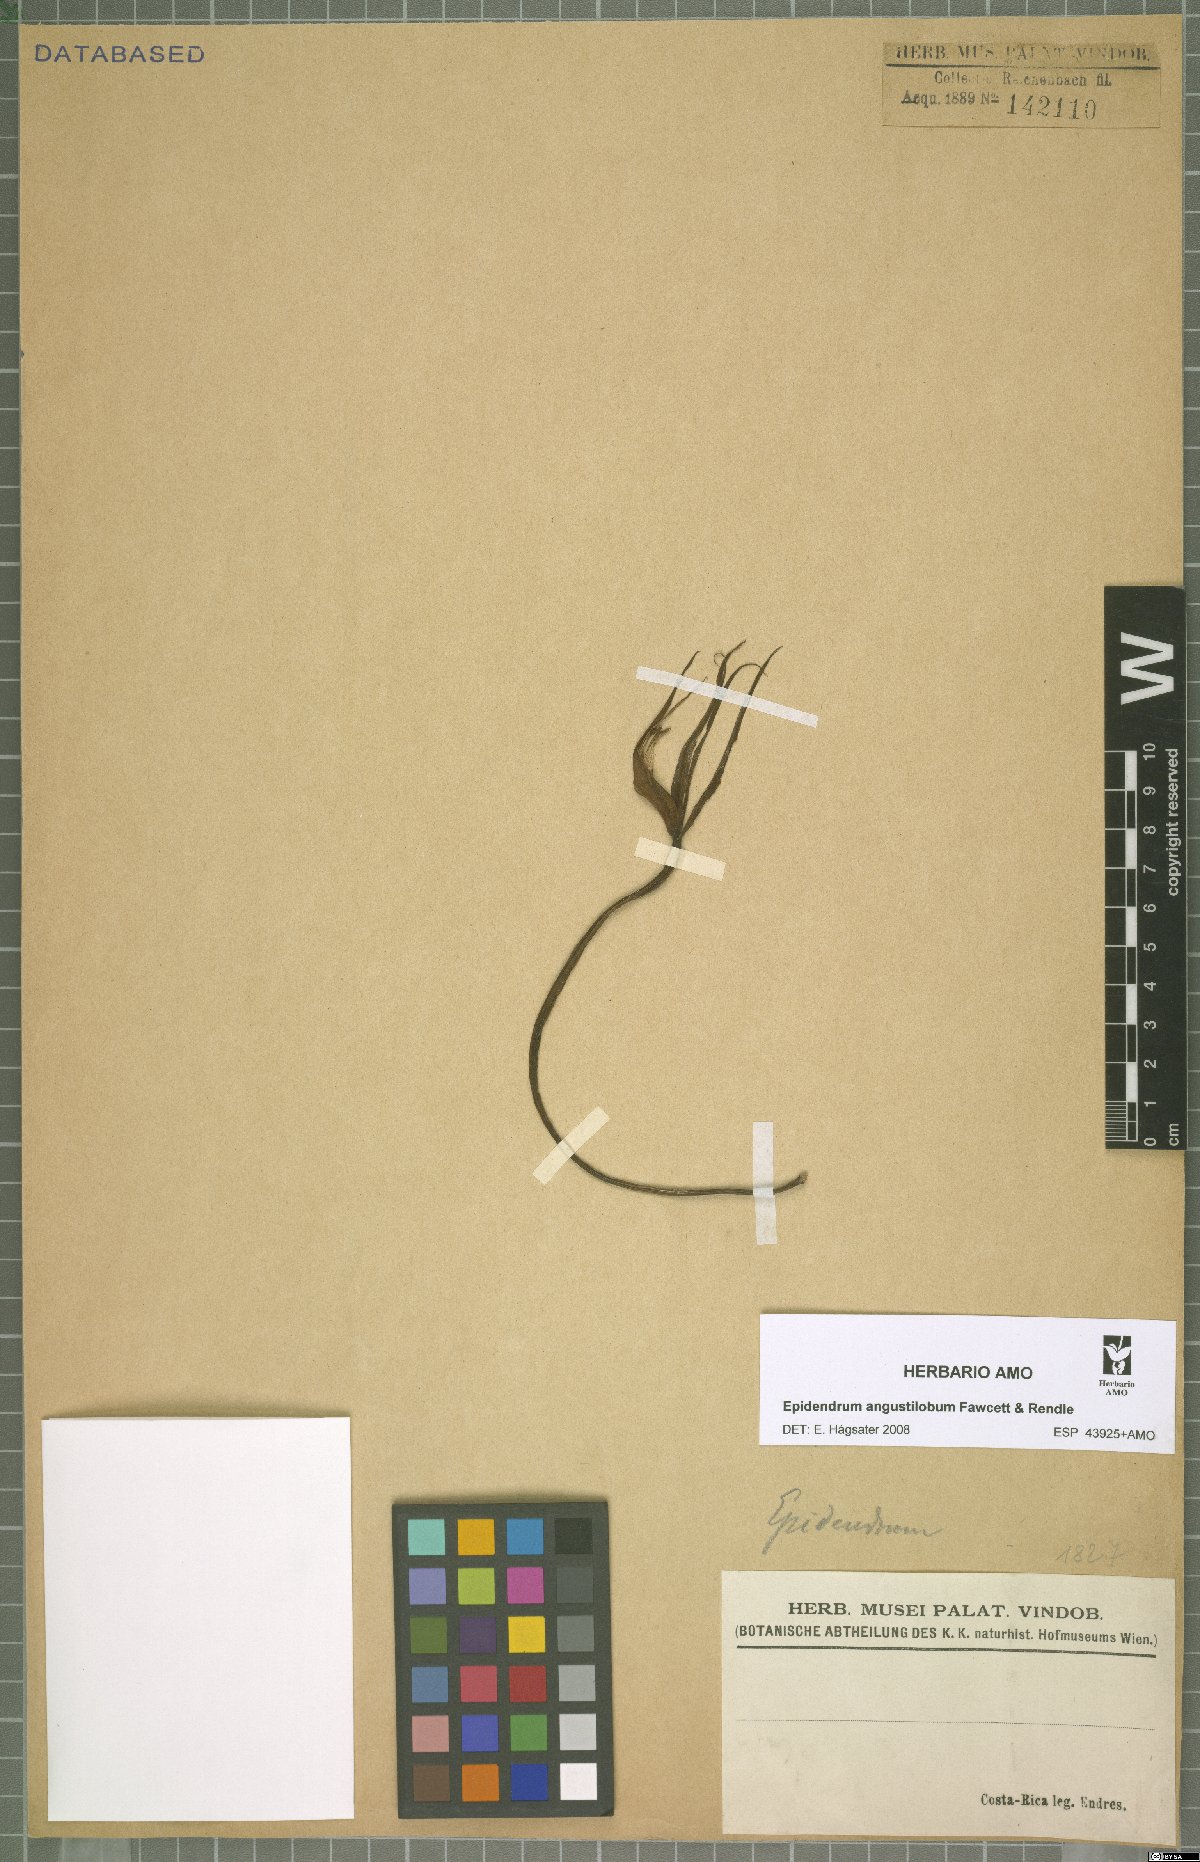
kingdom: Plantae
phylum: Tracheophyta
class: Liliopsida
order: Asparagales
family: Orchidaceae
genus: Epidendrum
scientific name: Epidendrum angustilobum
